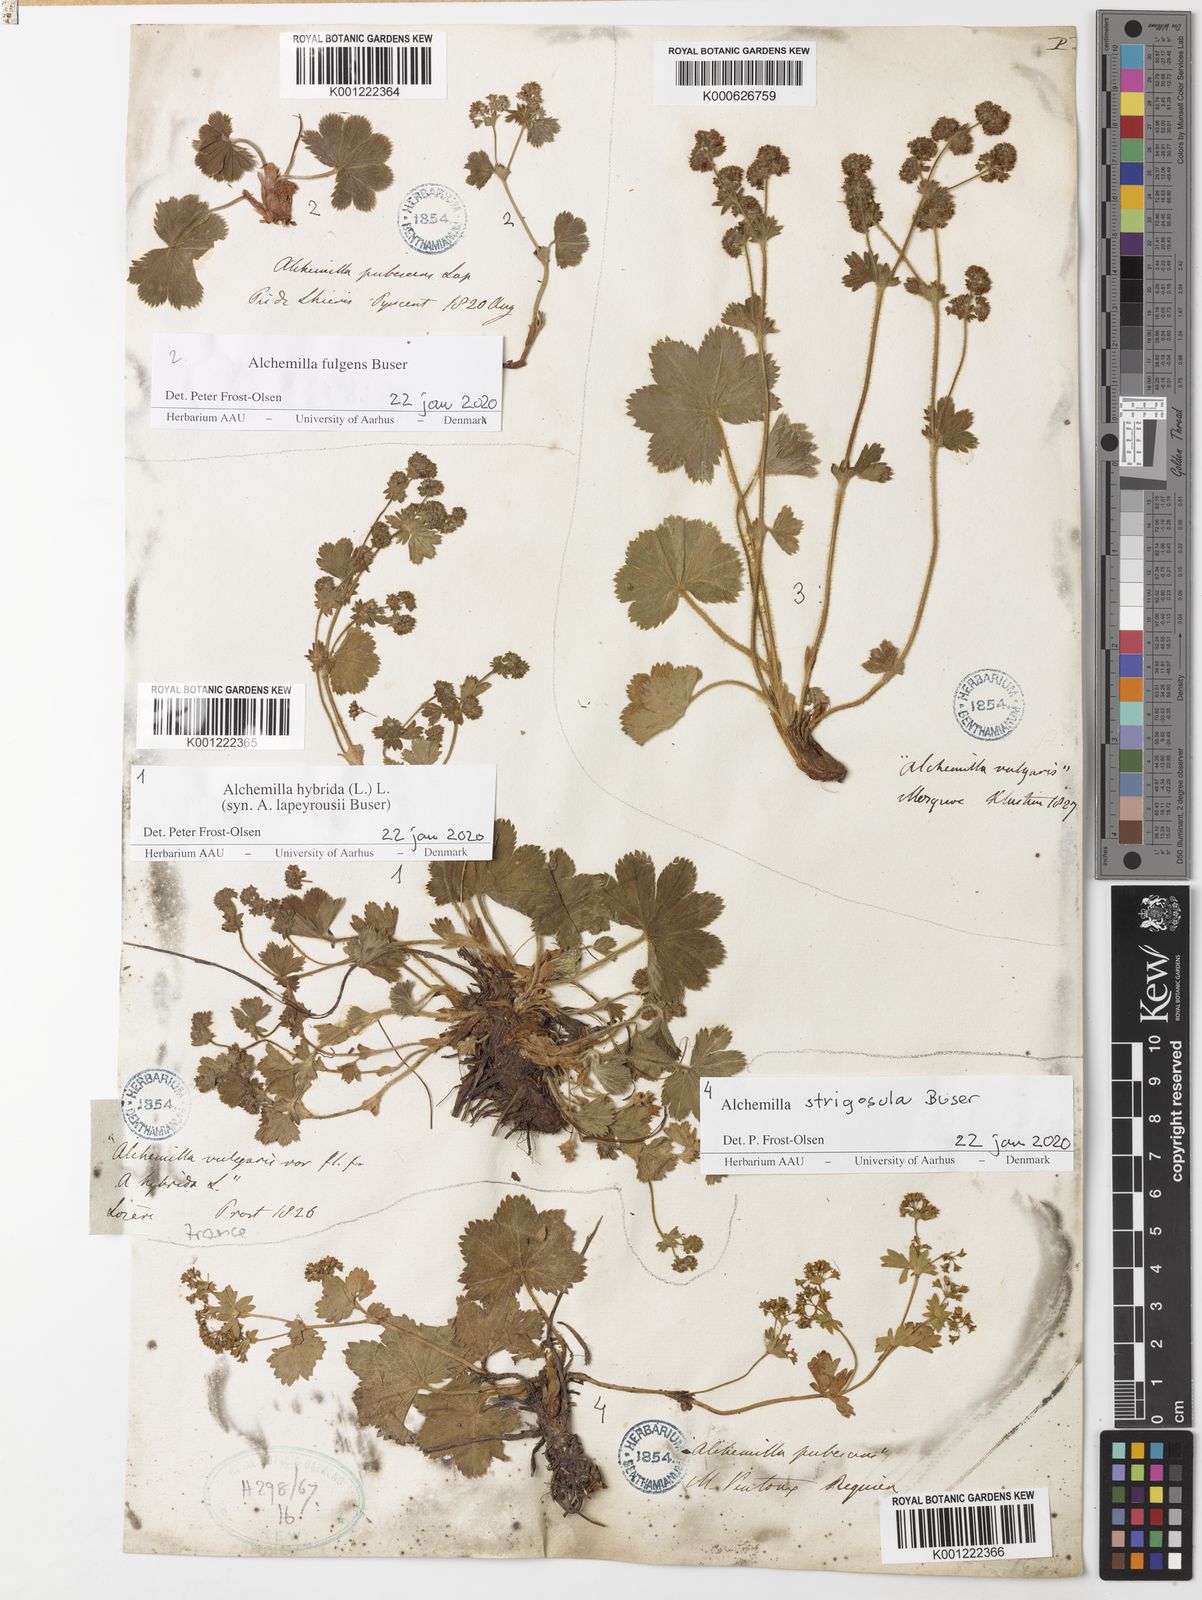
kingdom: Plantae
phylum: Tracheophyta
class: Magnoliopsida
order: Rosales
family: Rosaceae
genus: Alchemilla
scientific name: Alchemilla hybrida
